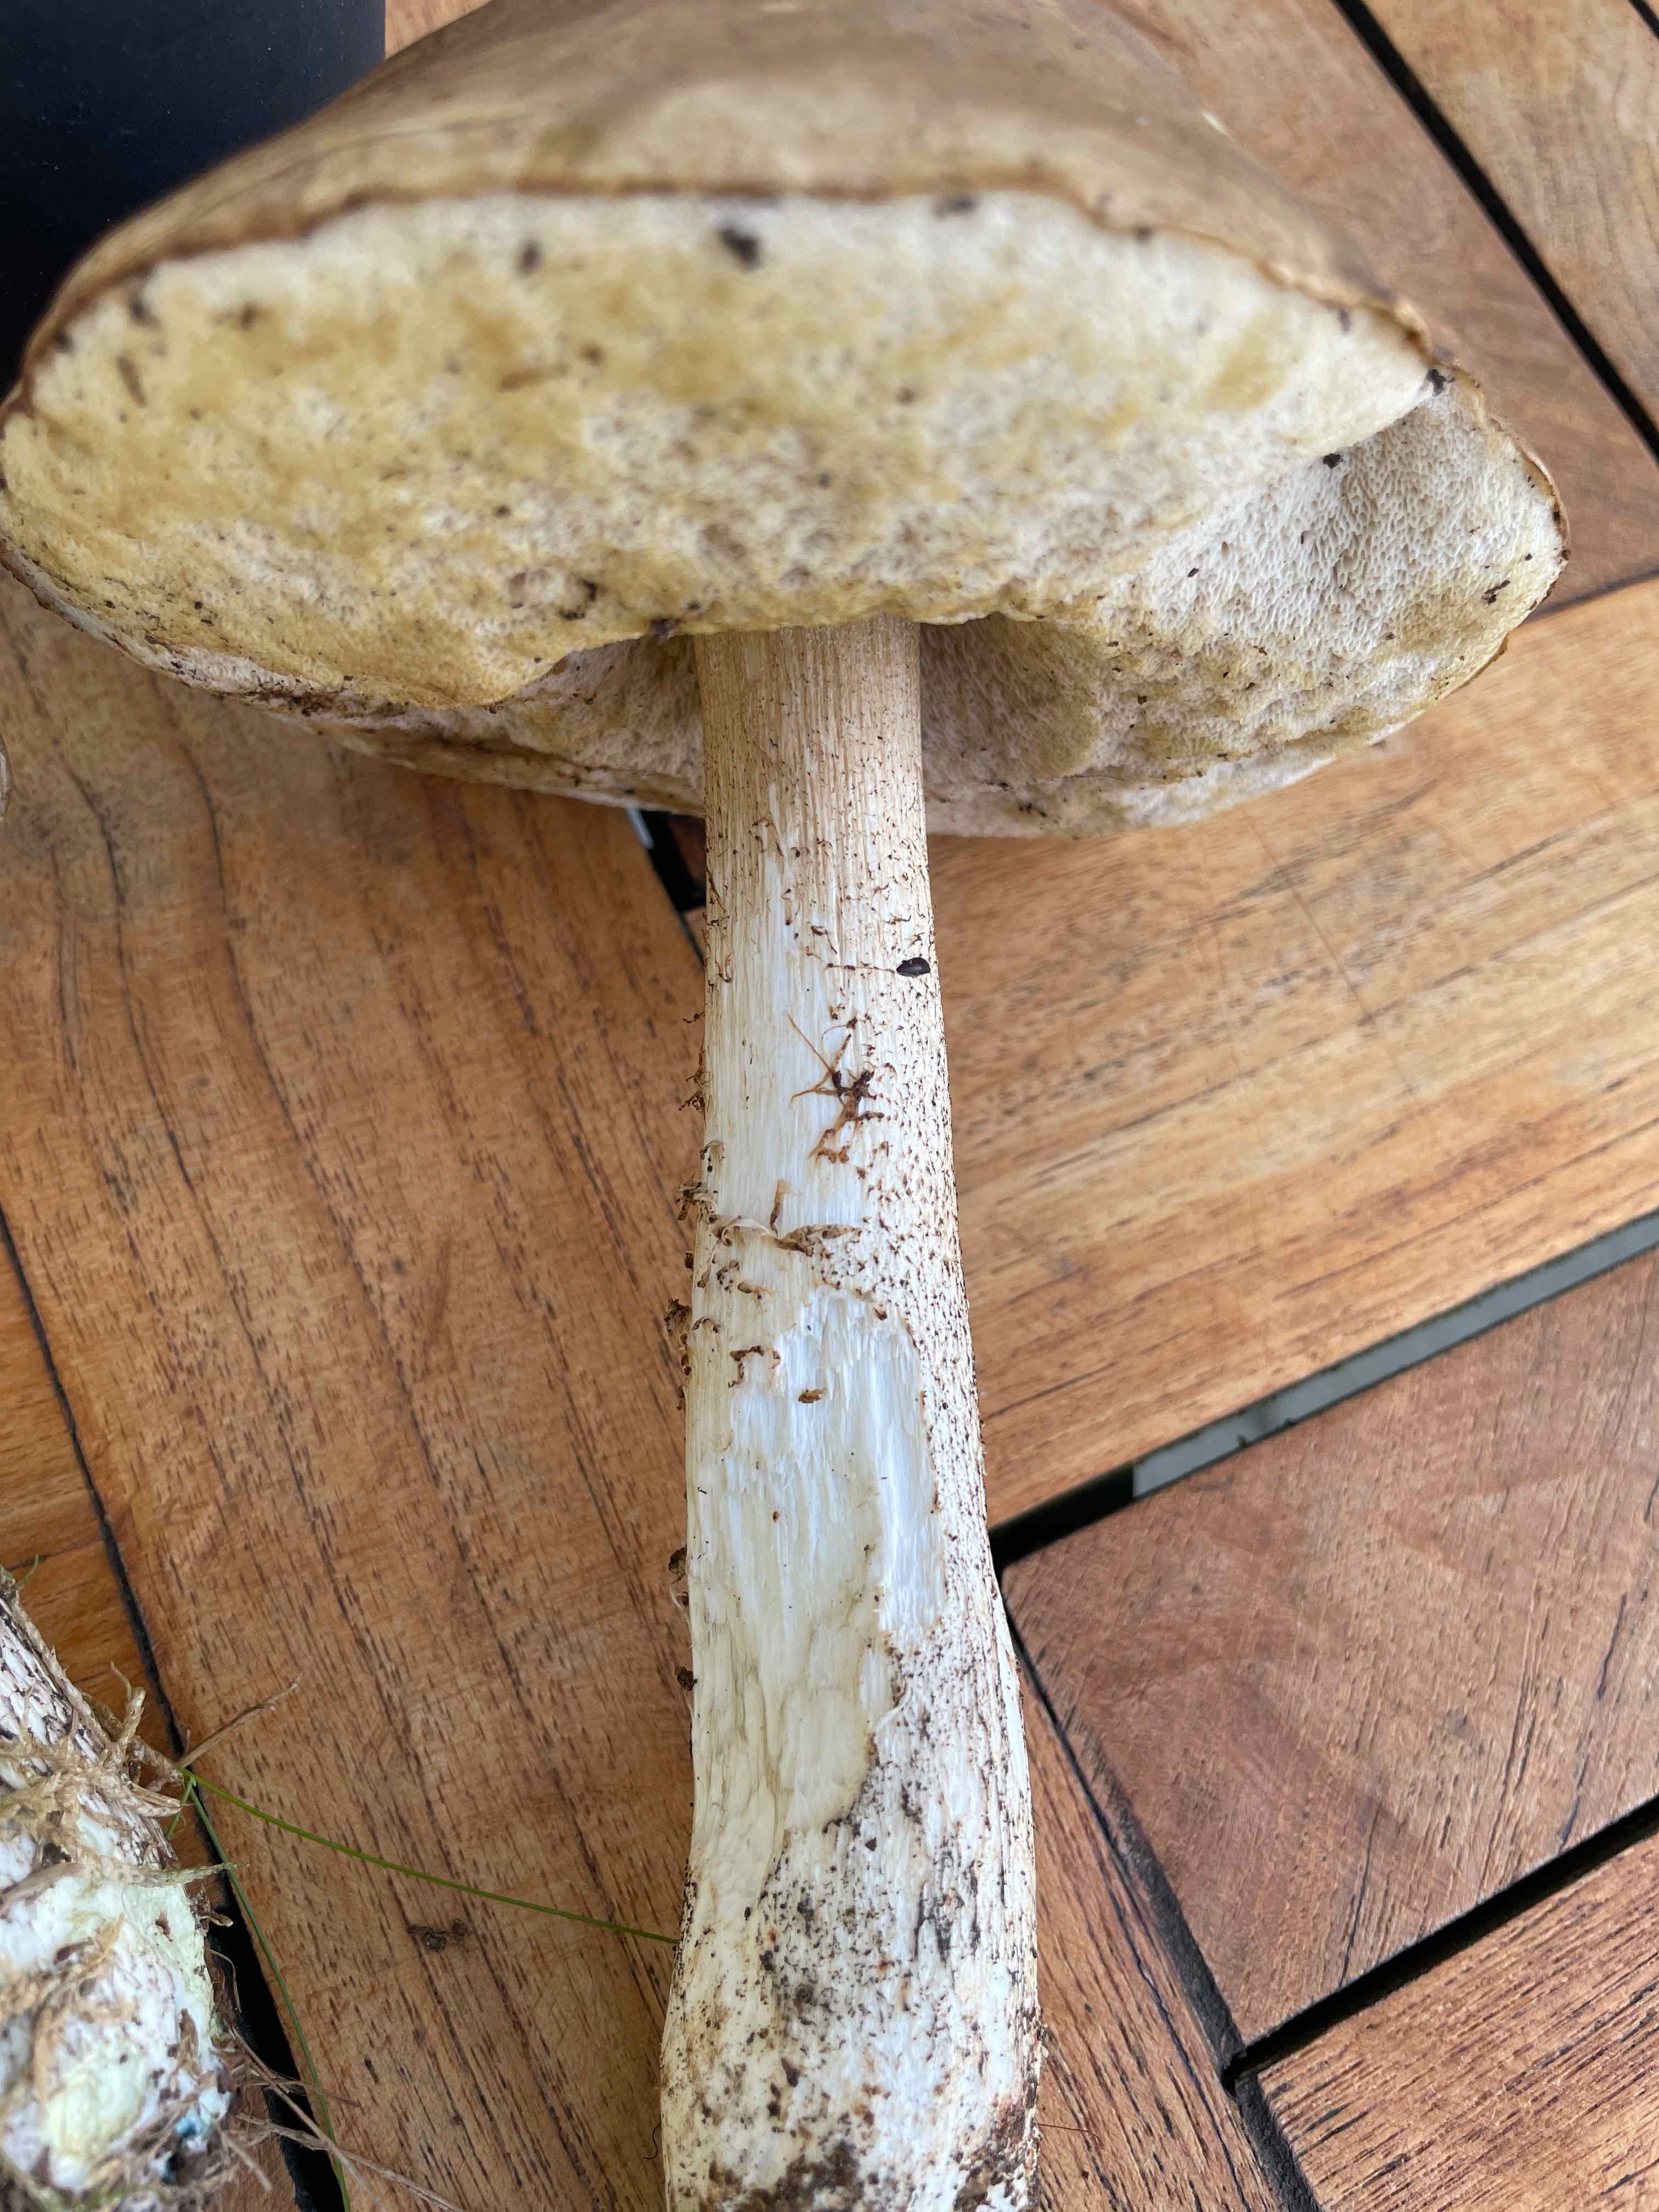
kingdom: Fungi
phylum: Basidiomycota
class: Agaricomycetes
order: Boletales
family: Boletaceae
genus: Leccinum
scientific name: Leccinum
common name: skælrørhat
